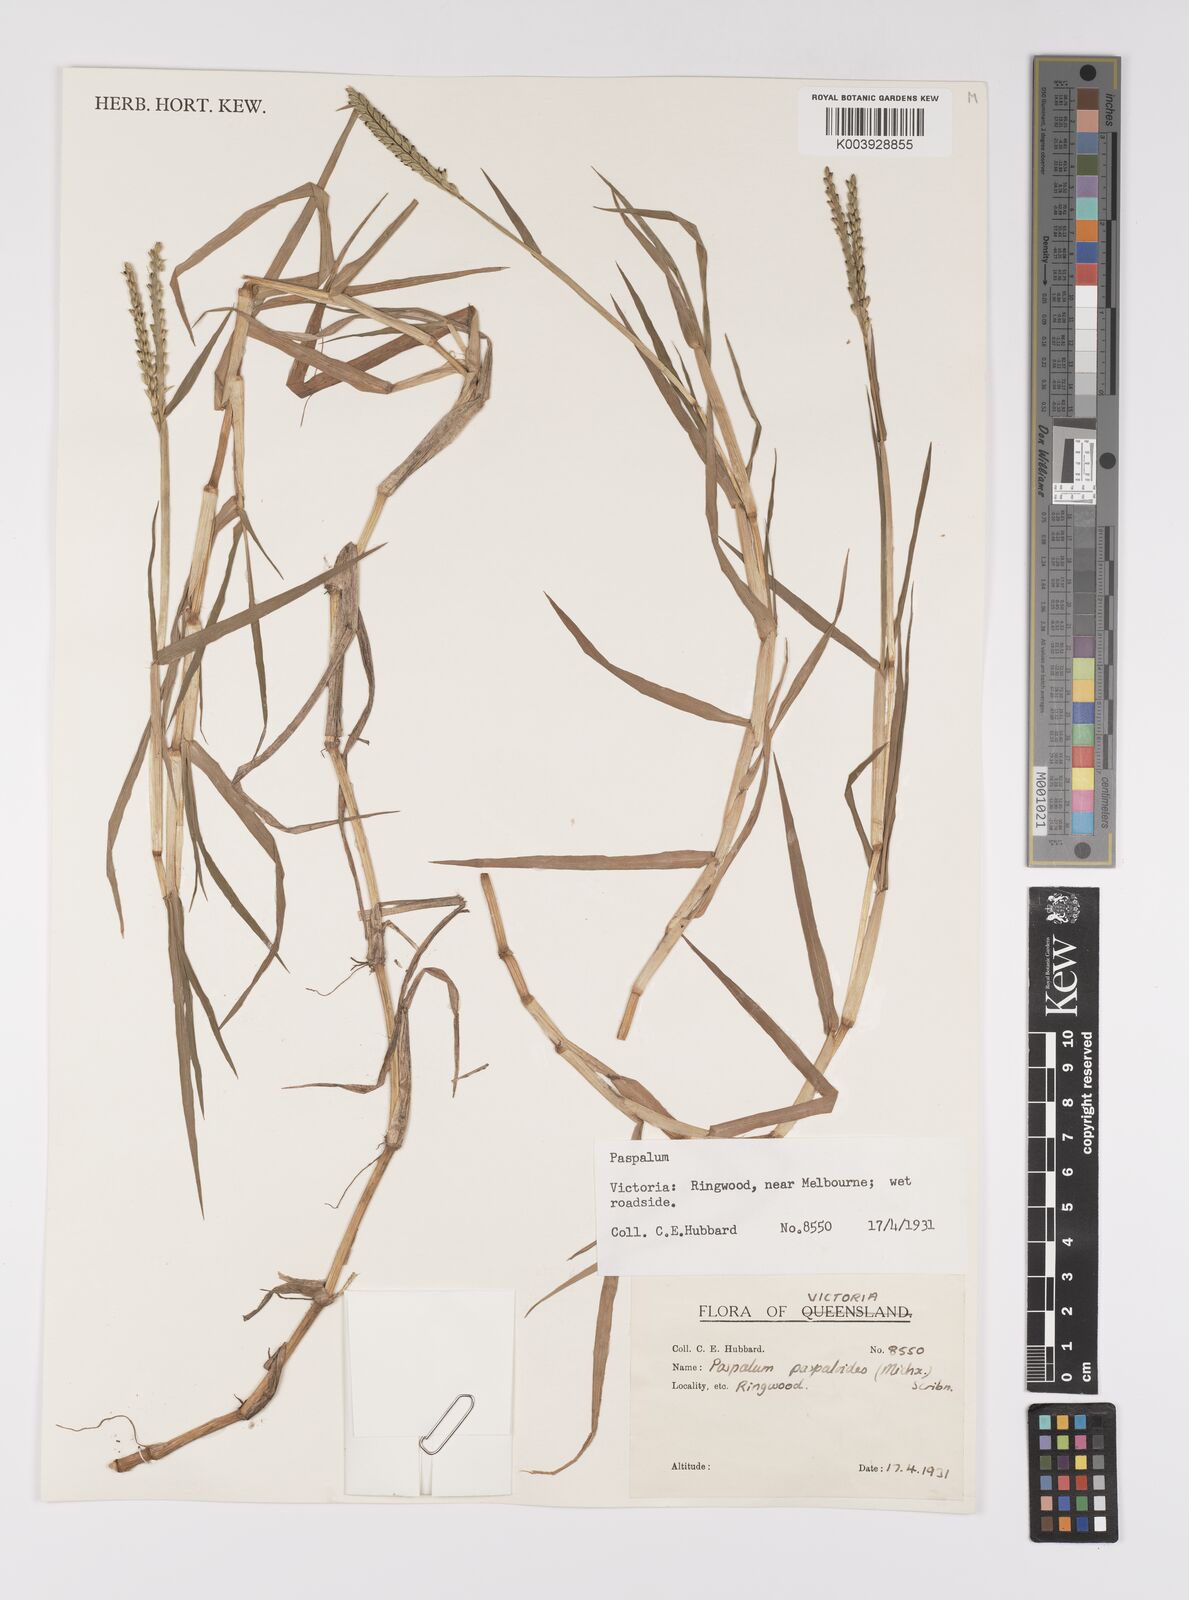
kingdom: Plantae
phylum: Tracheophyta
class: Liliopsida
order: Poales
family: Poaceae
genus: Paspalum
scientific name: Paspalum distichum
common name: Knotgrass
